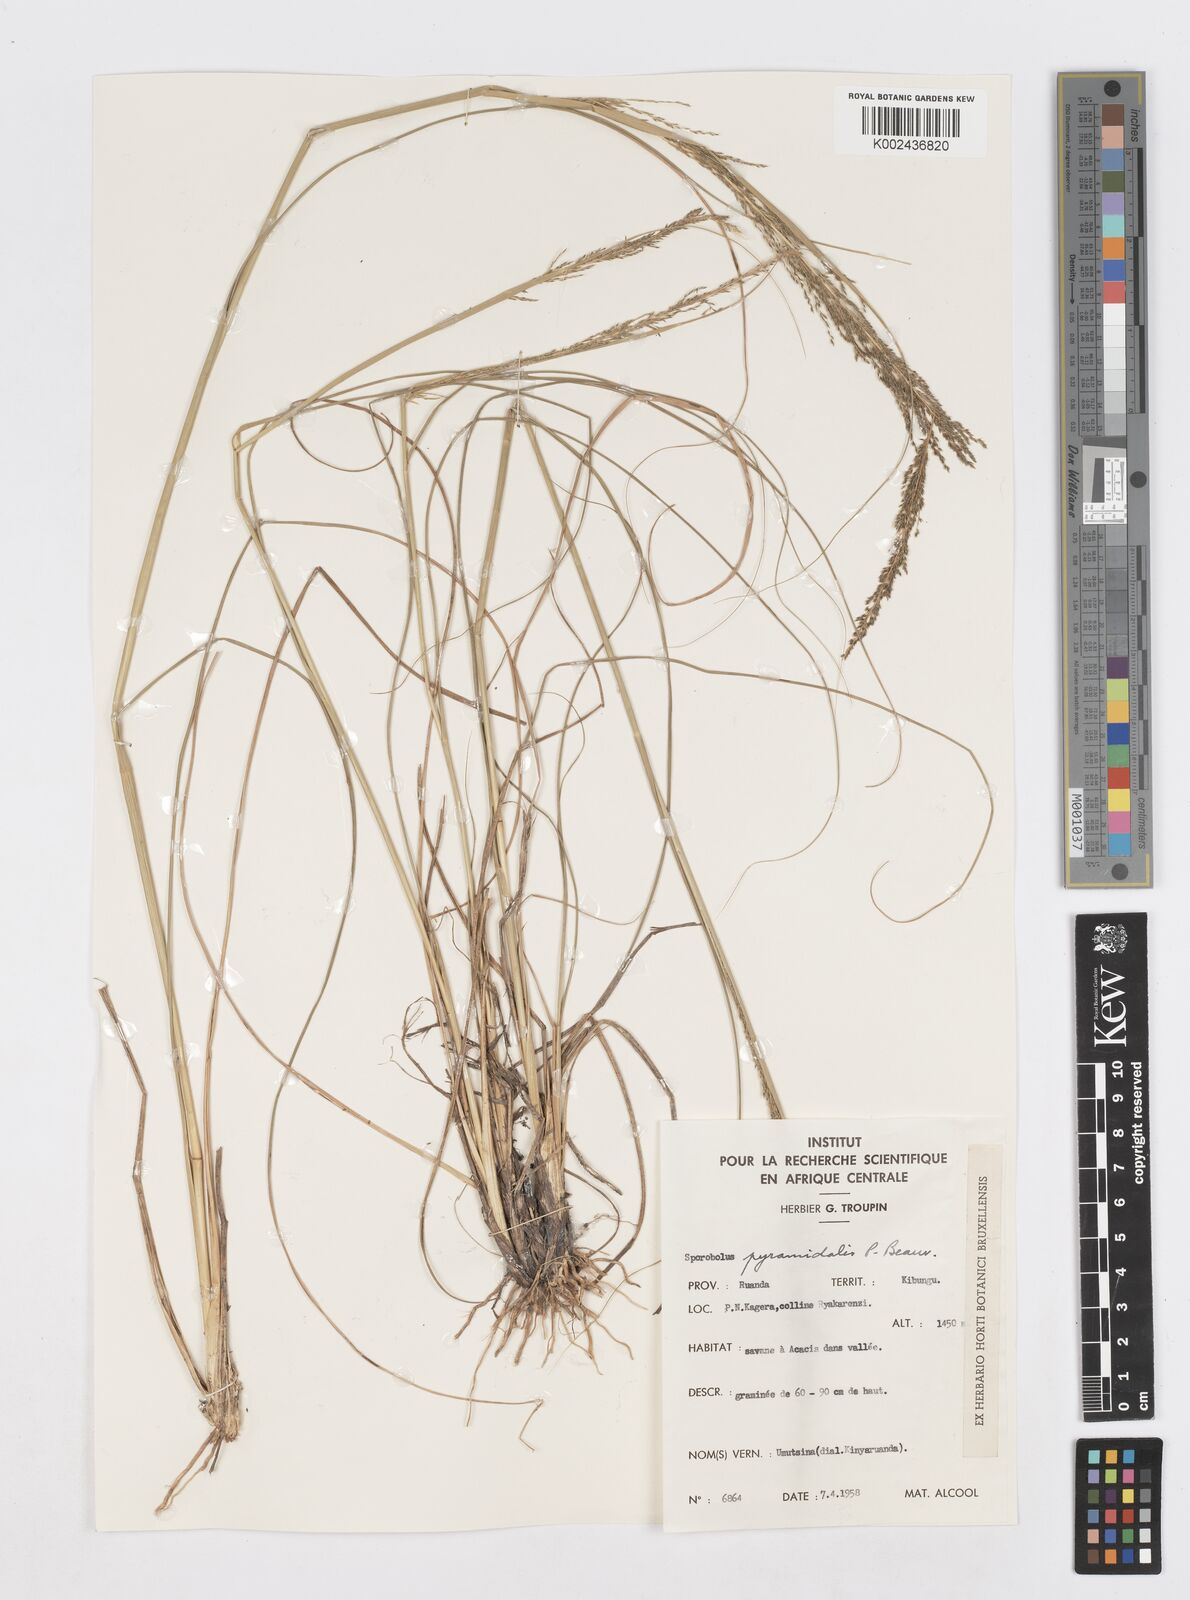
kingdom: Plantae
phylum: Tracheophyta
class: Liliopsida
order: Poales
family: Poaceae
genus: Sporobolus
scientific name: Sporobolus pyramidalis
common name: West indian dropseed
